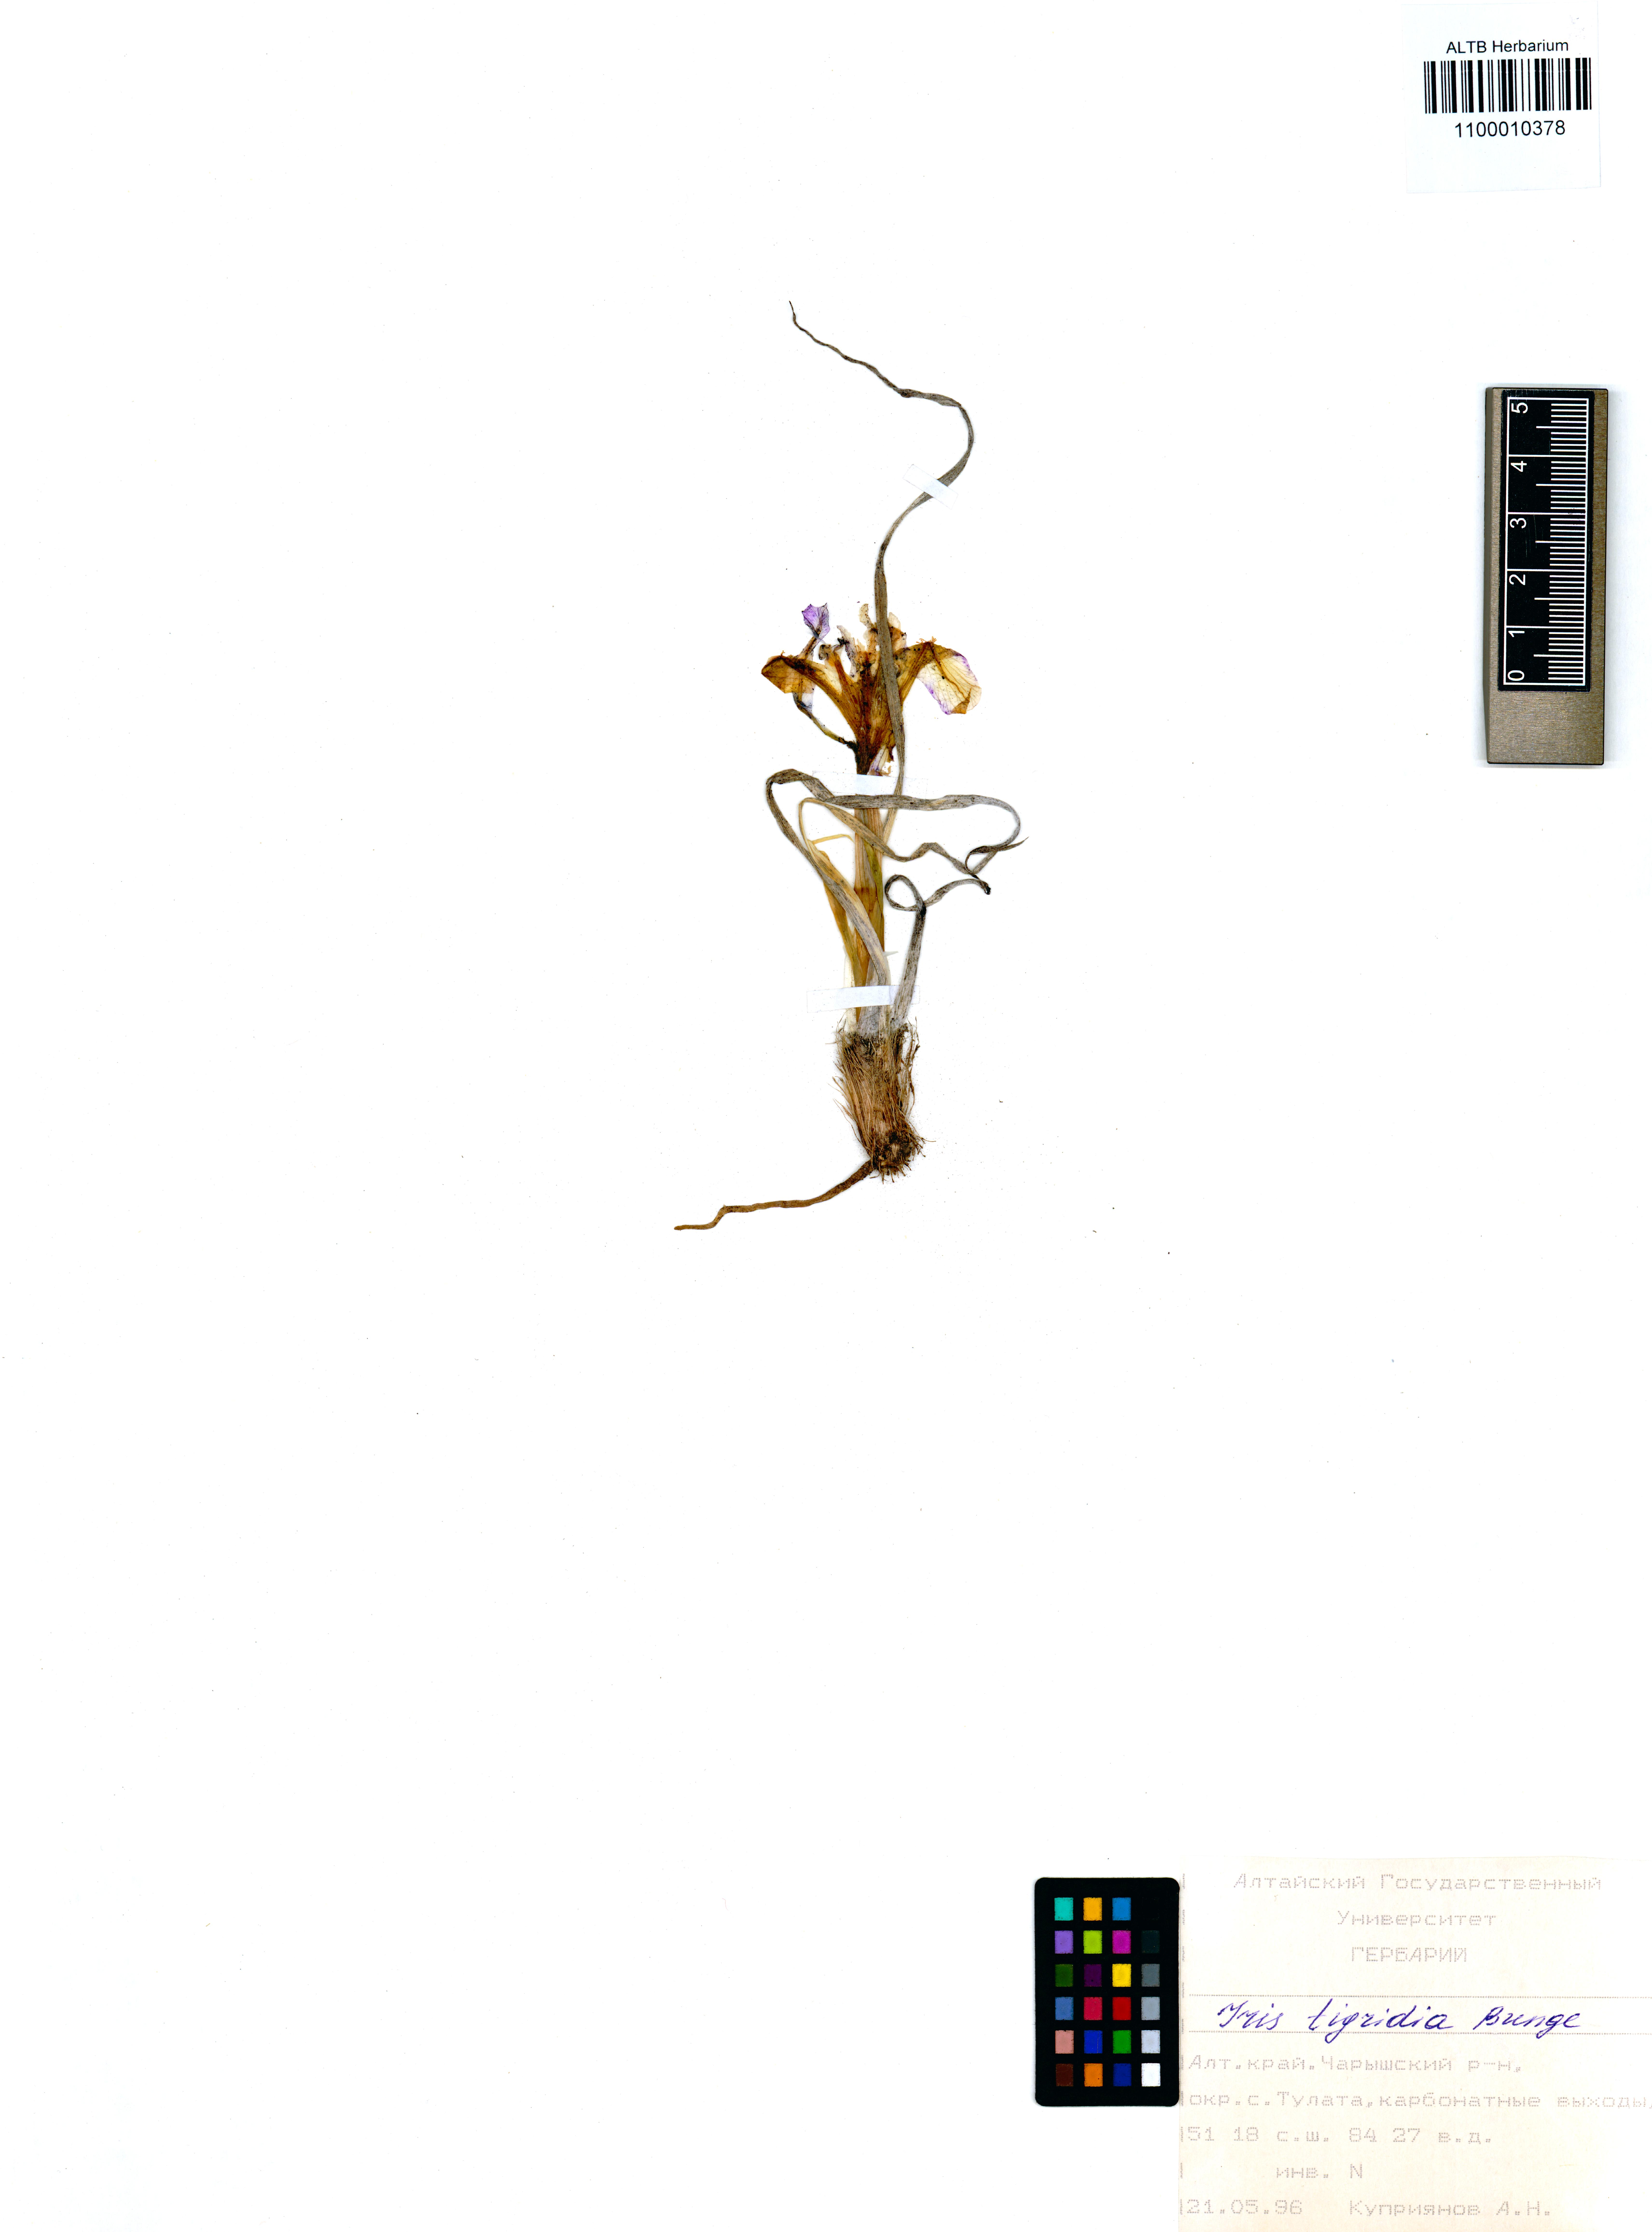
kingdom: Plantae
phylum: Tracheophyta
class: Liliopsida
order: Asparagales
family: Iridaceae
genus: Iris
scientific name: Iris tigridia
